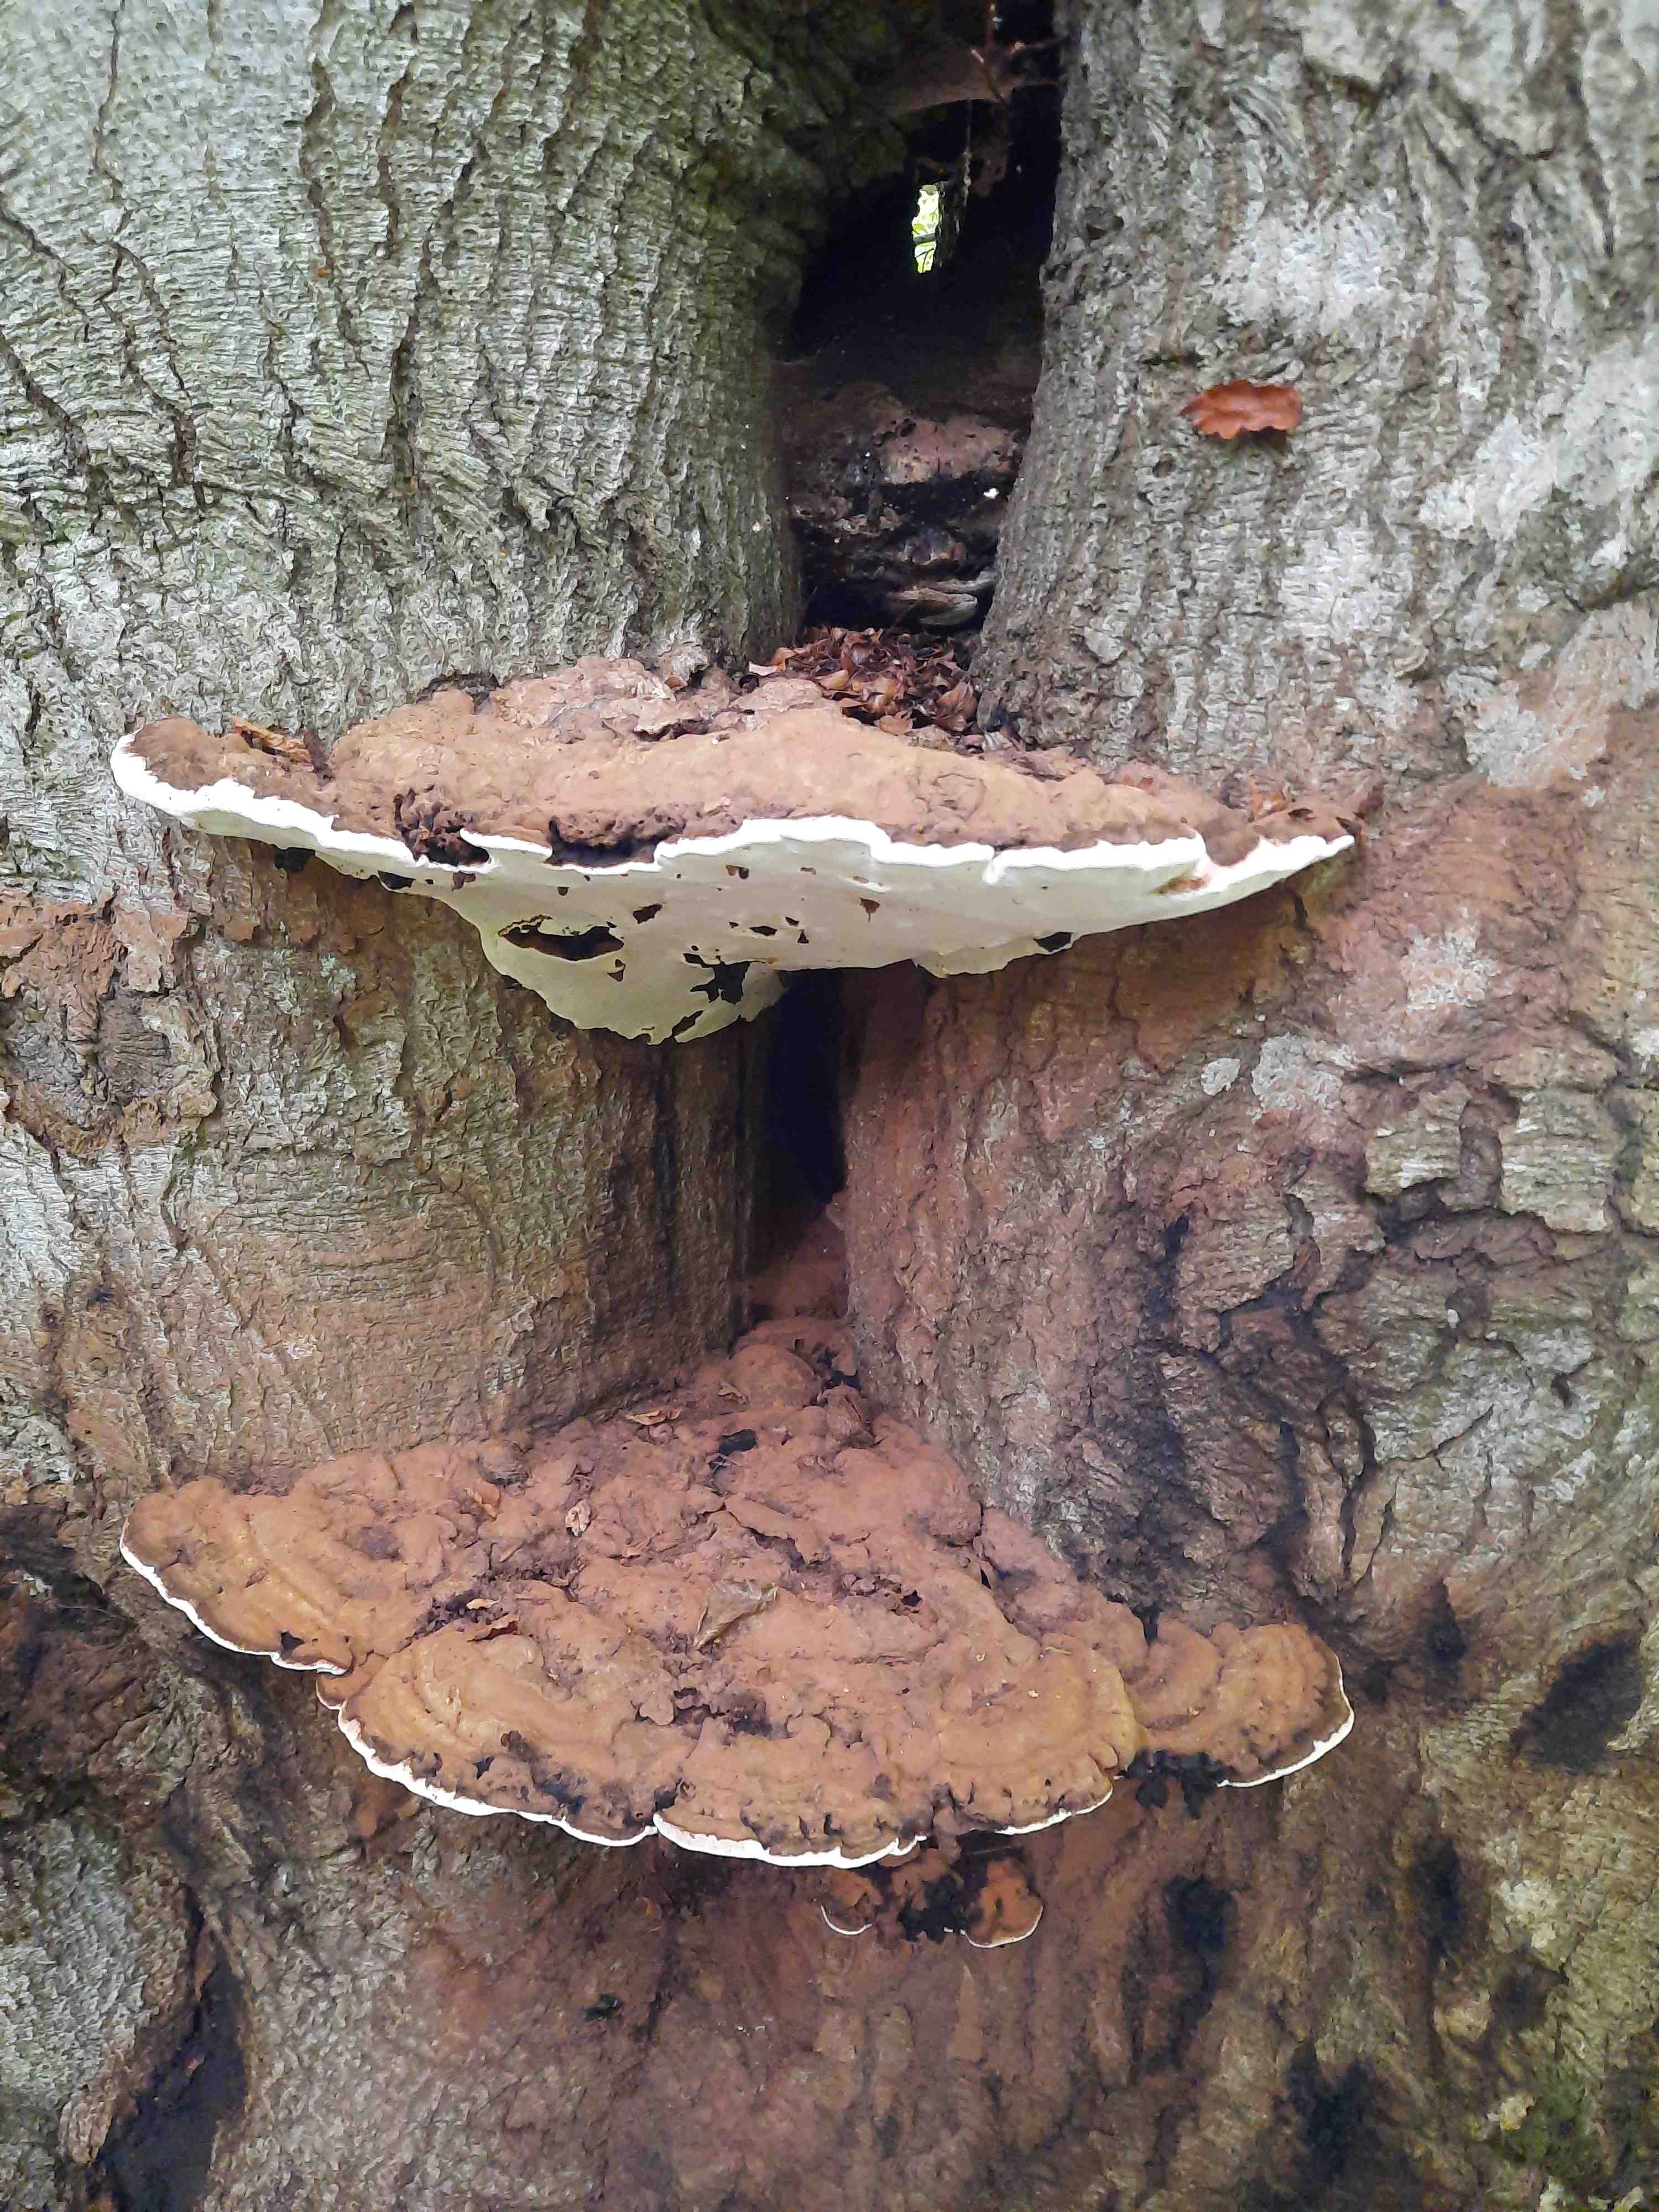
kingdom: Fungi
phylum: Basidiomycota
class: Agaricomycetes
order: Polyporales
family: Polyporaceae
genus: Ganoderma
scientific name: Ganoderma applanatum
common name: flad lakporesvamp
